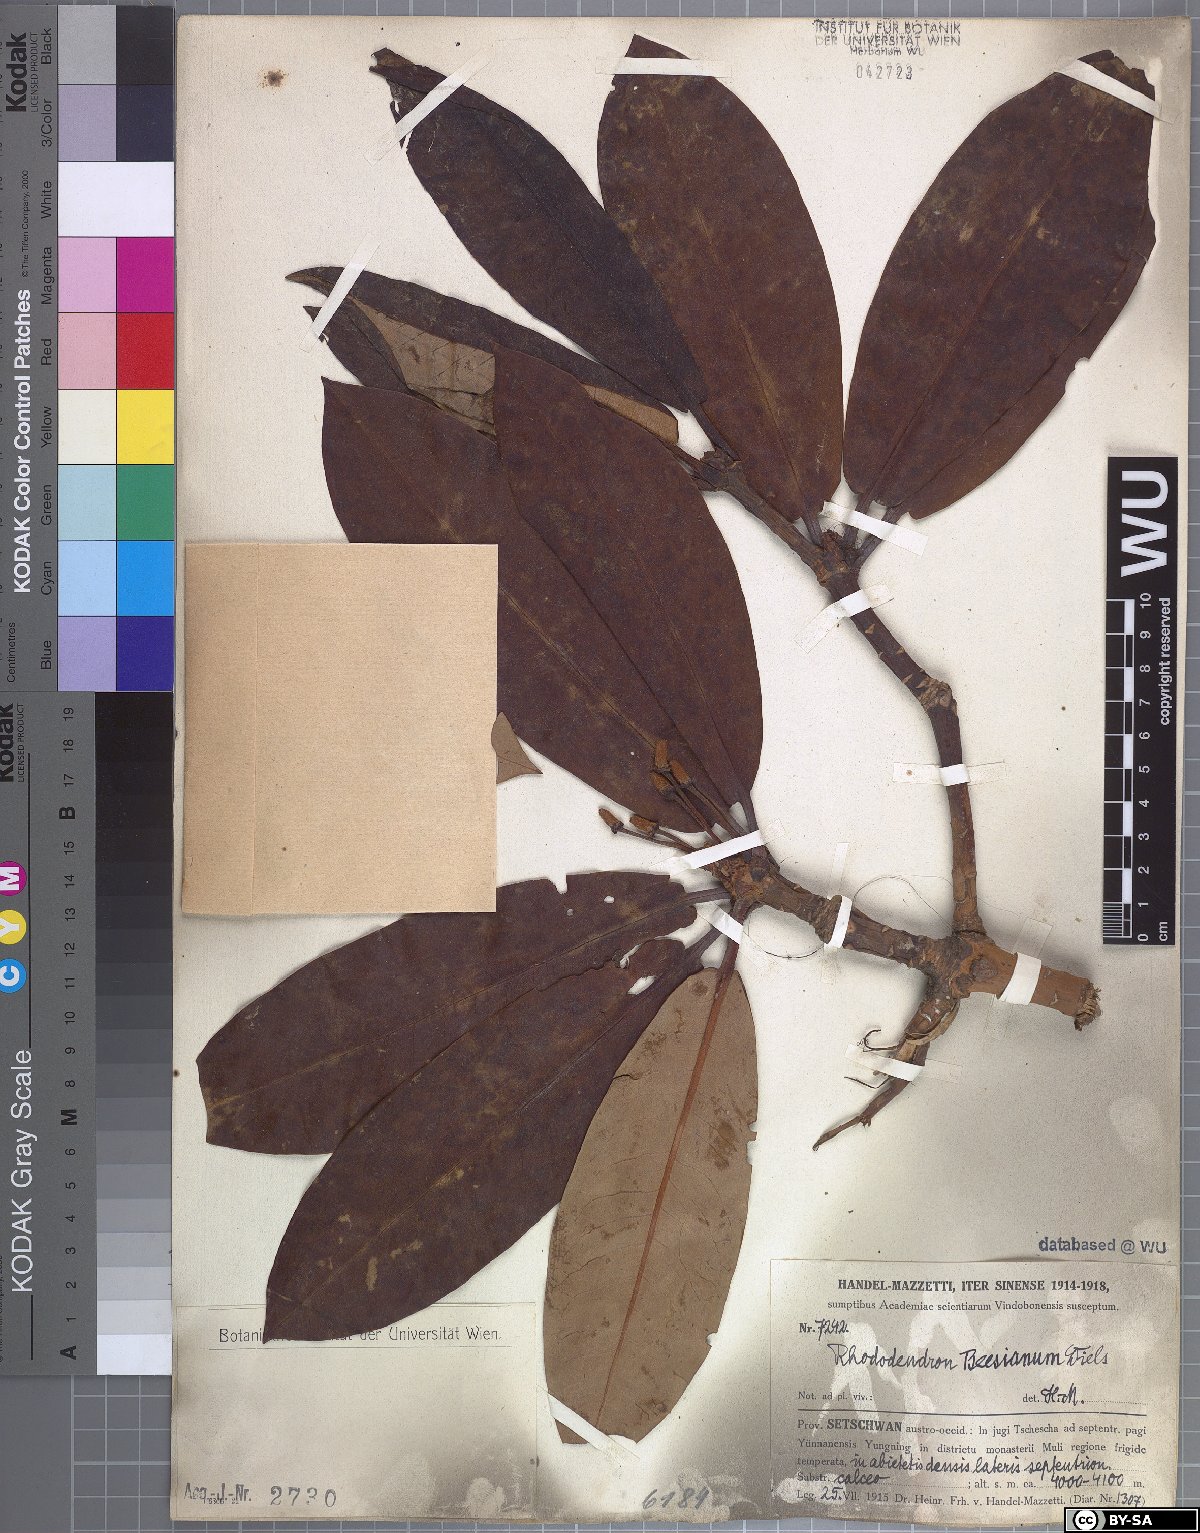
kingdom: Plantae
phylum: Tracheophyta
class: Magnoliopsida
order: Ericales
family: Ericaceae
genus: Rhododendron
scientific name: Rhododendron beesianum
